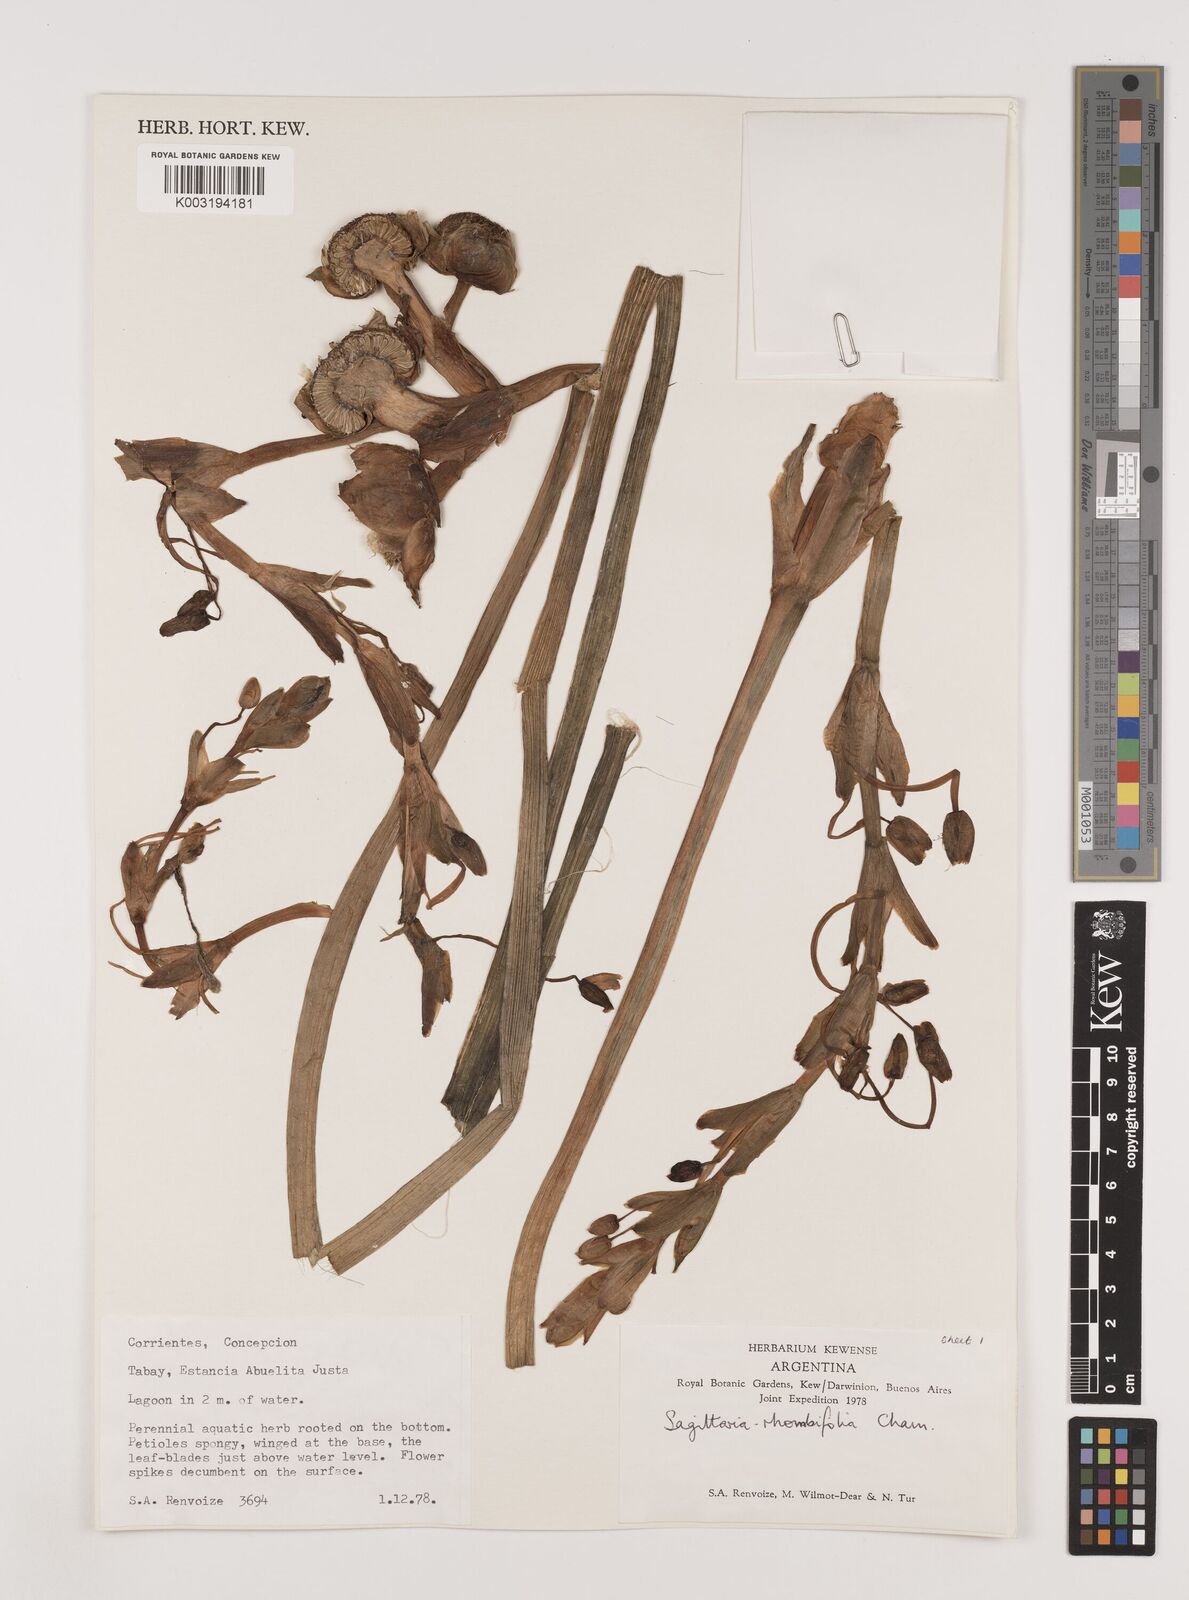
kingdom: Plantae
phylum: Tracheophyta
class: Liliopsida
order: Alismatales
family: Alismataceae
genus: Sagittaria
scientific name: Sagittaria rhombifolia
